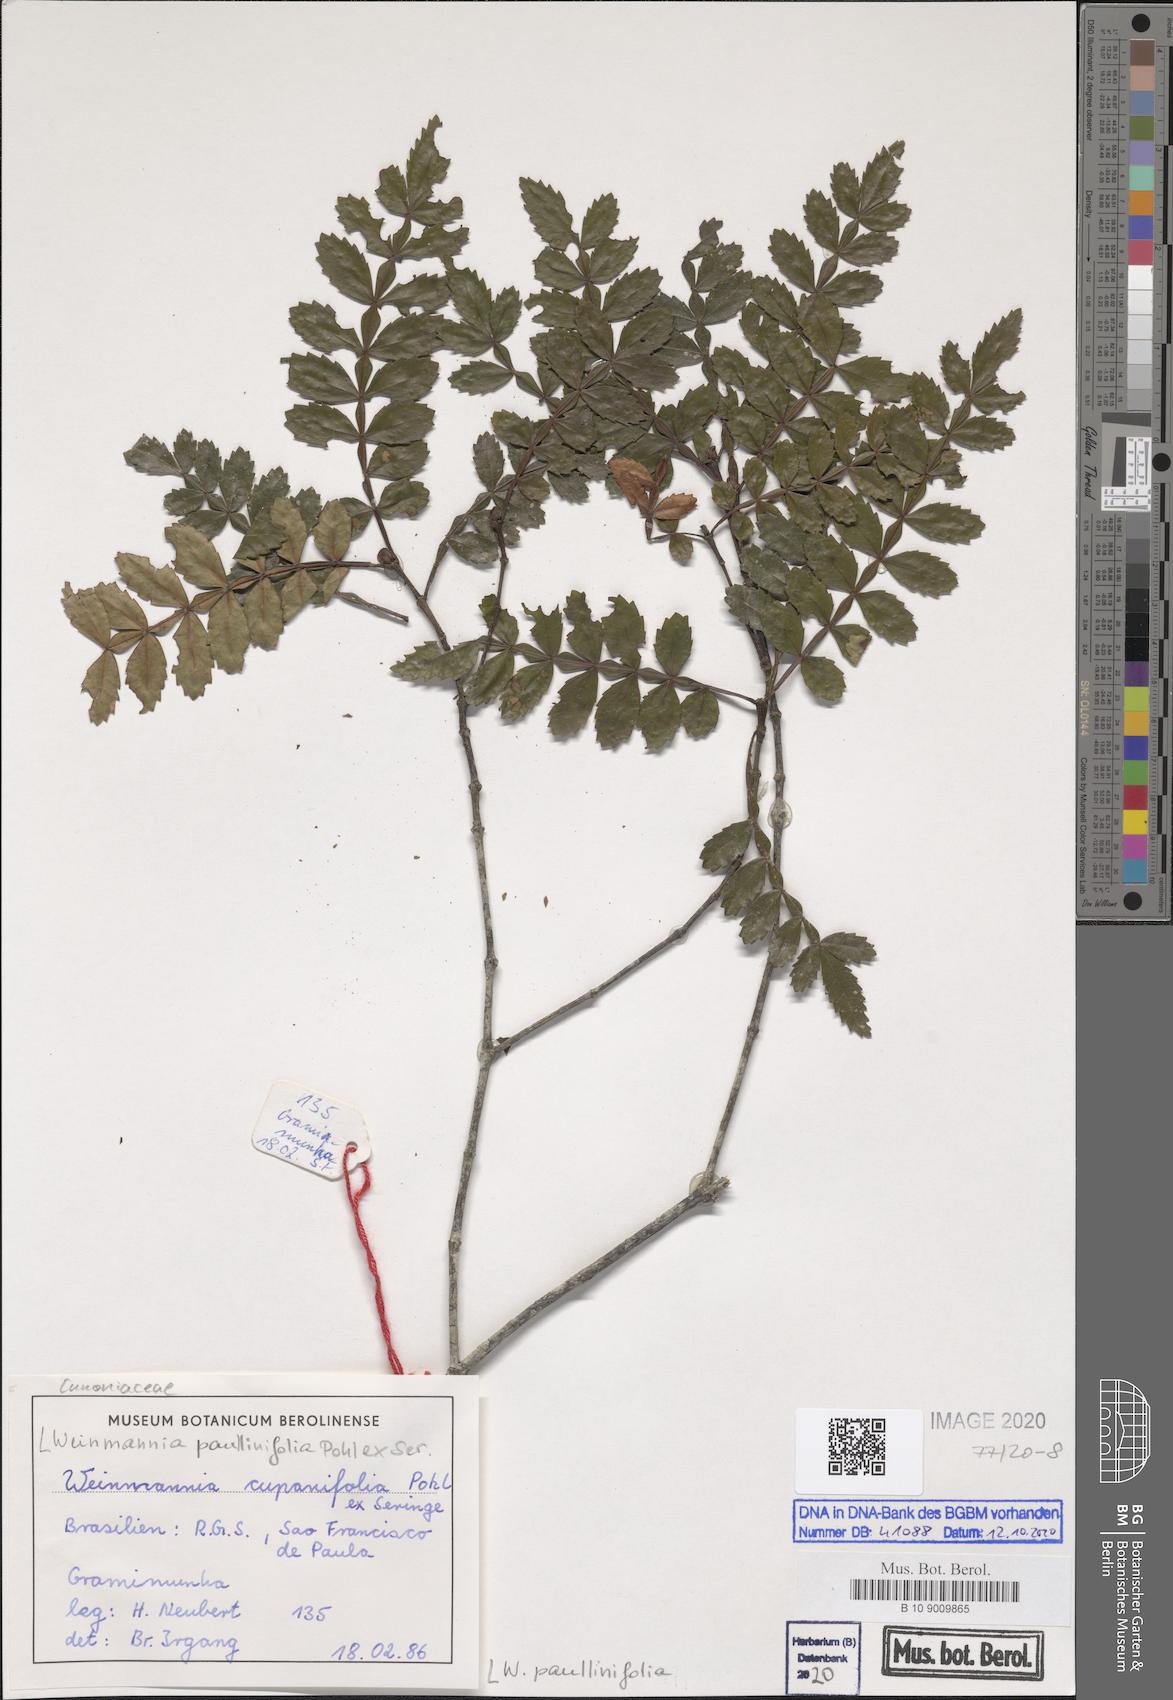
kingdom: Plantae
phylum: Tracheophyta
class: Magnoliopsida
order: Oxalidales
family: Cunoniaceae
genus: Weinmannia
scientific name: Weinmannia paullinifolia
